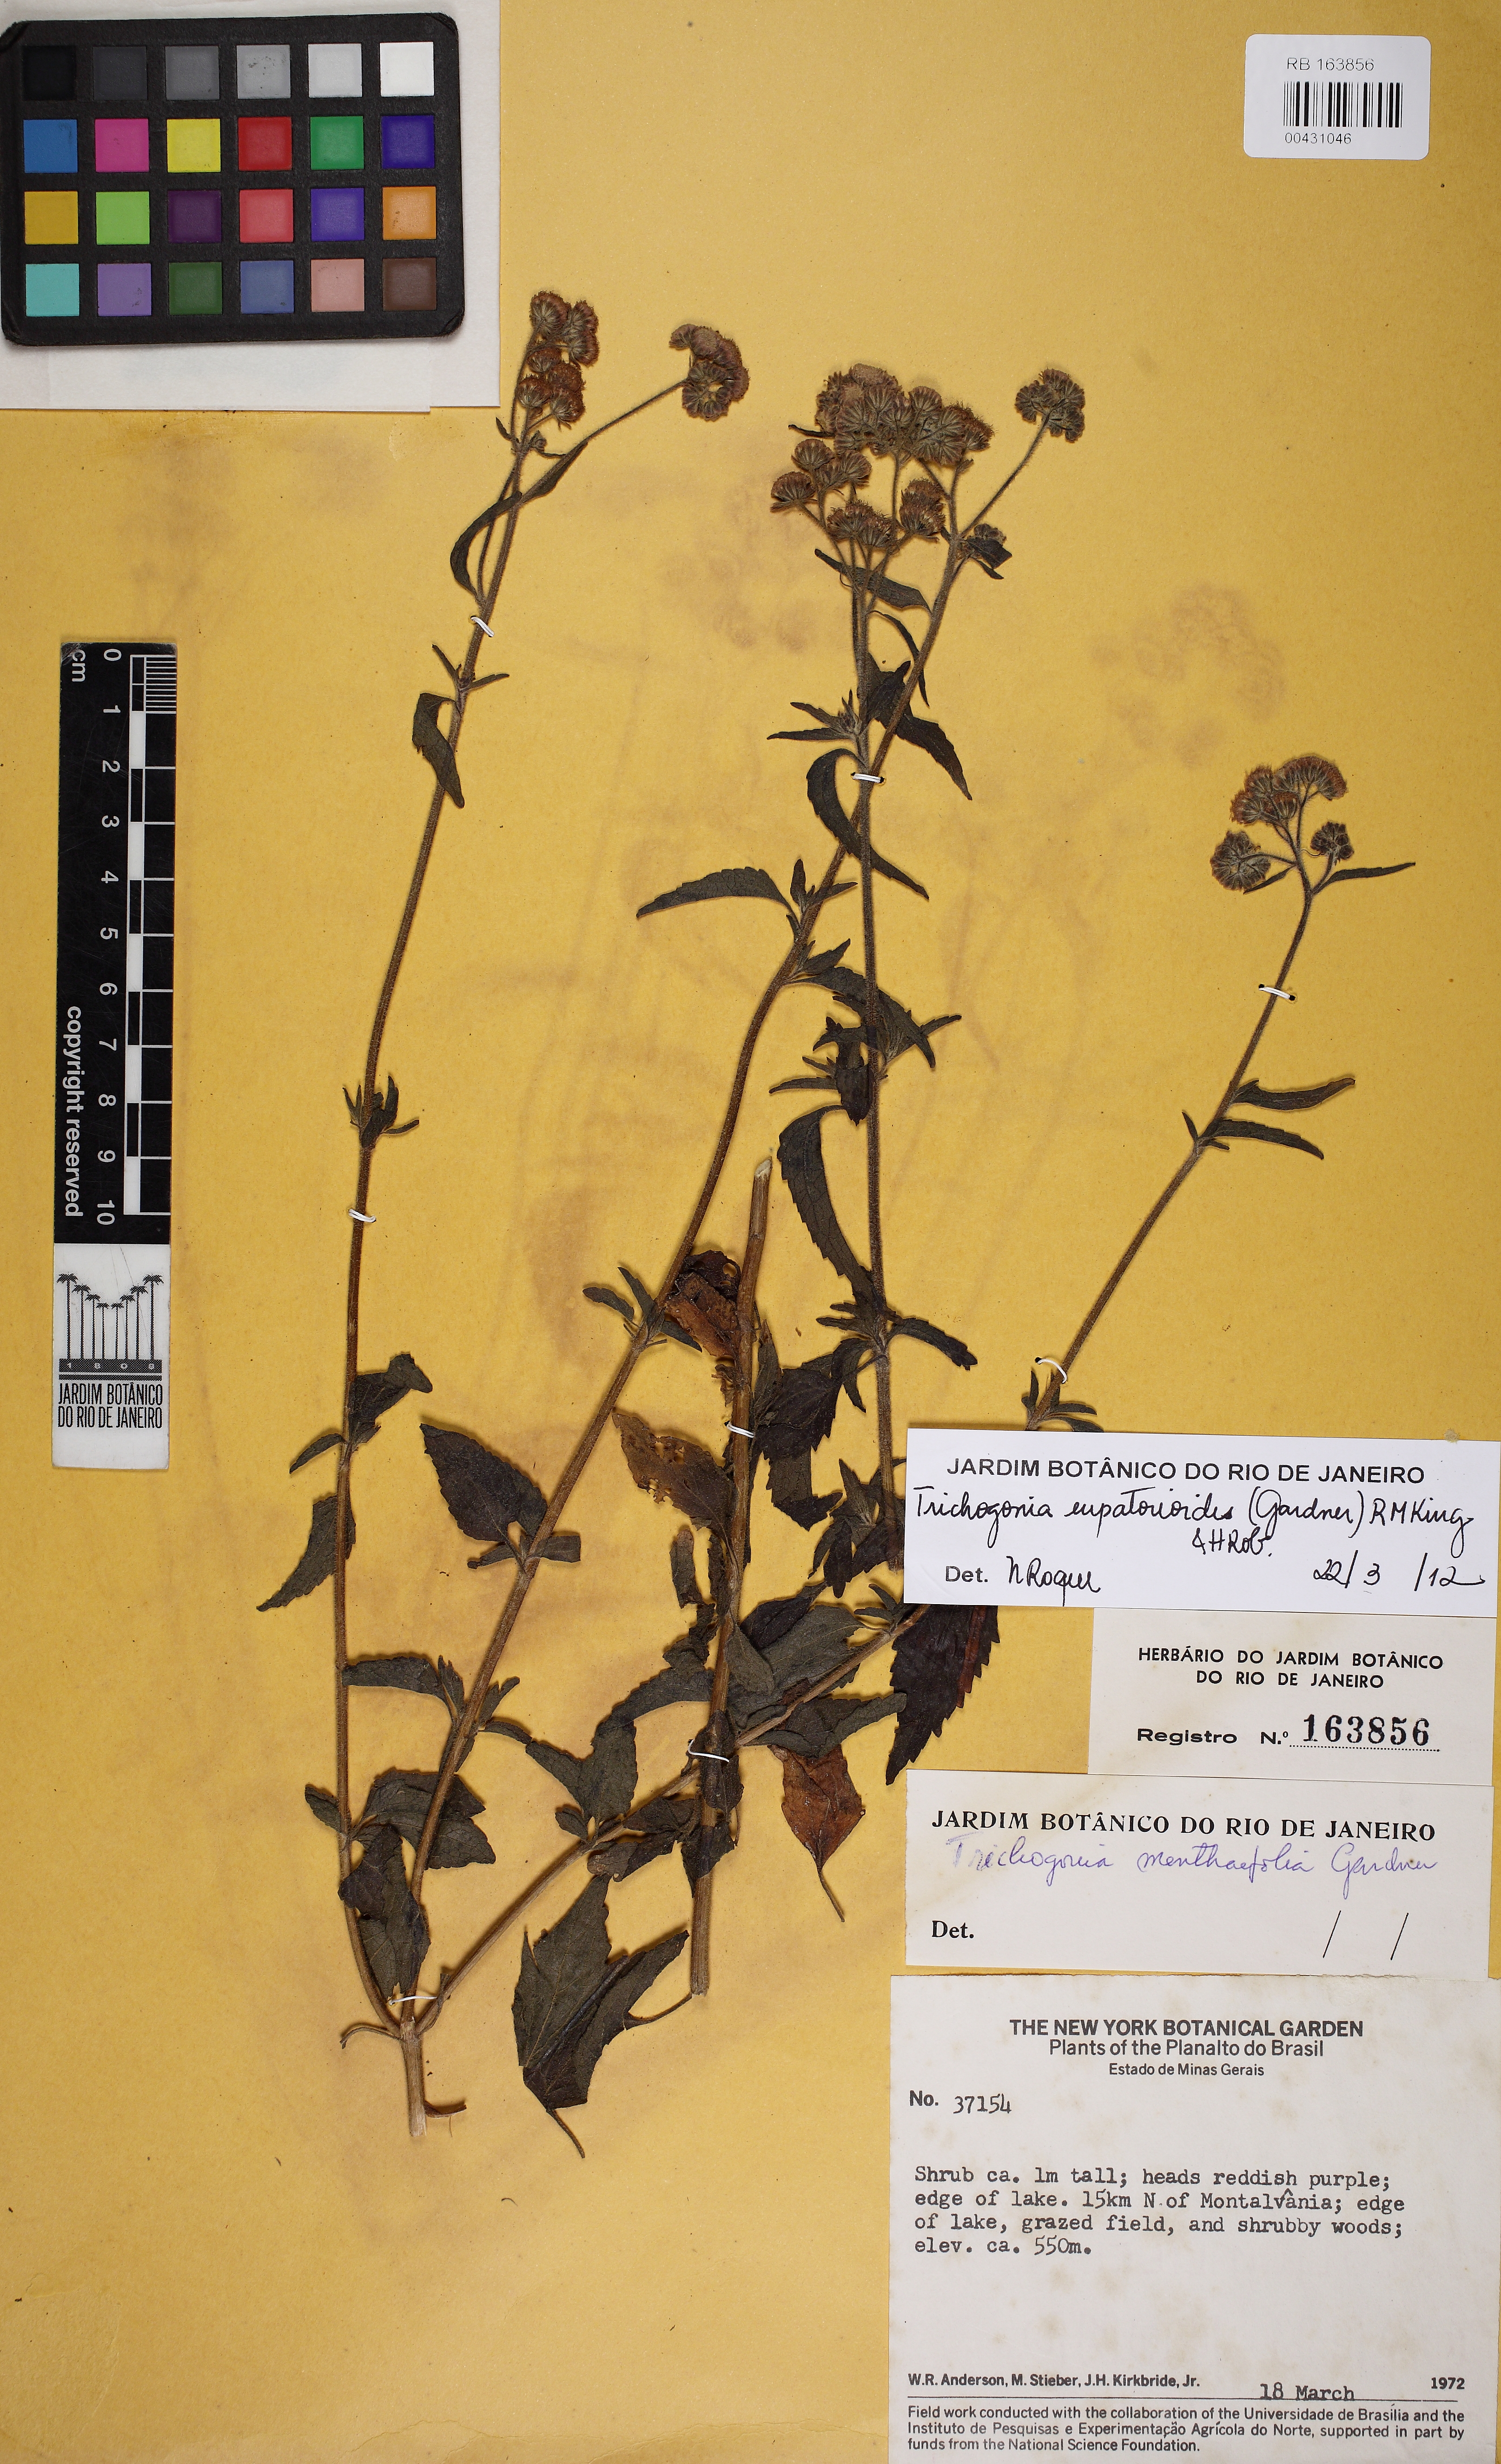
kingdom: Plantae
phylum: Tracheophyta
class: Magnoliopsida
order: Asterales
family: Asteraceae
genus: Trichogonia
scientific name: Trichogonia menthifolia
